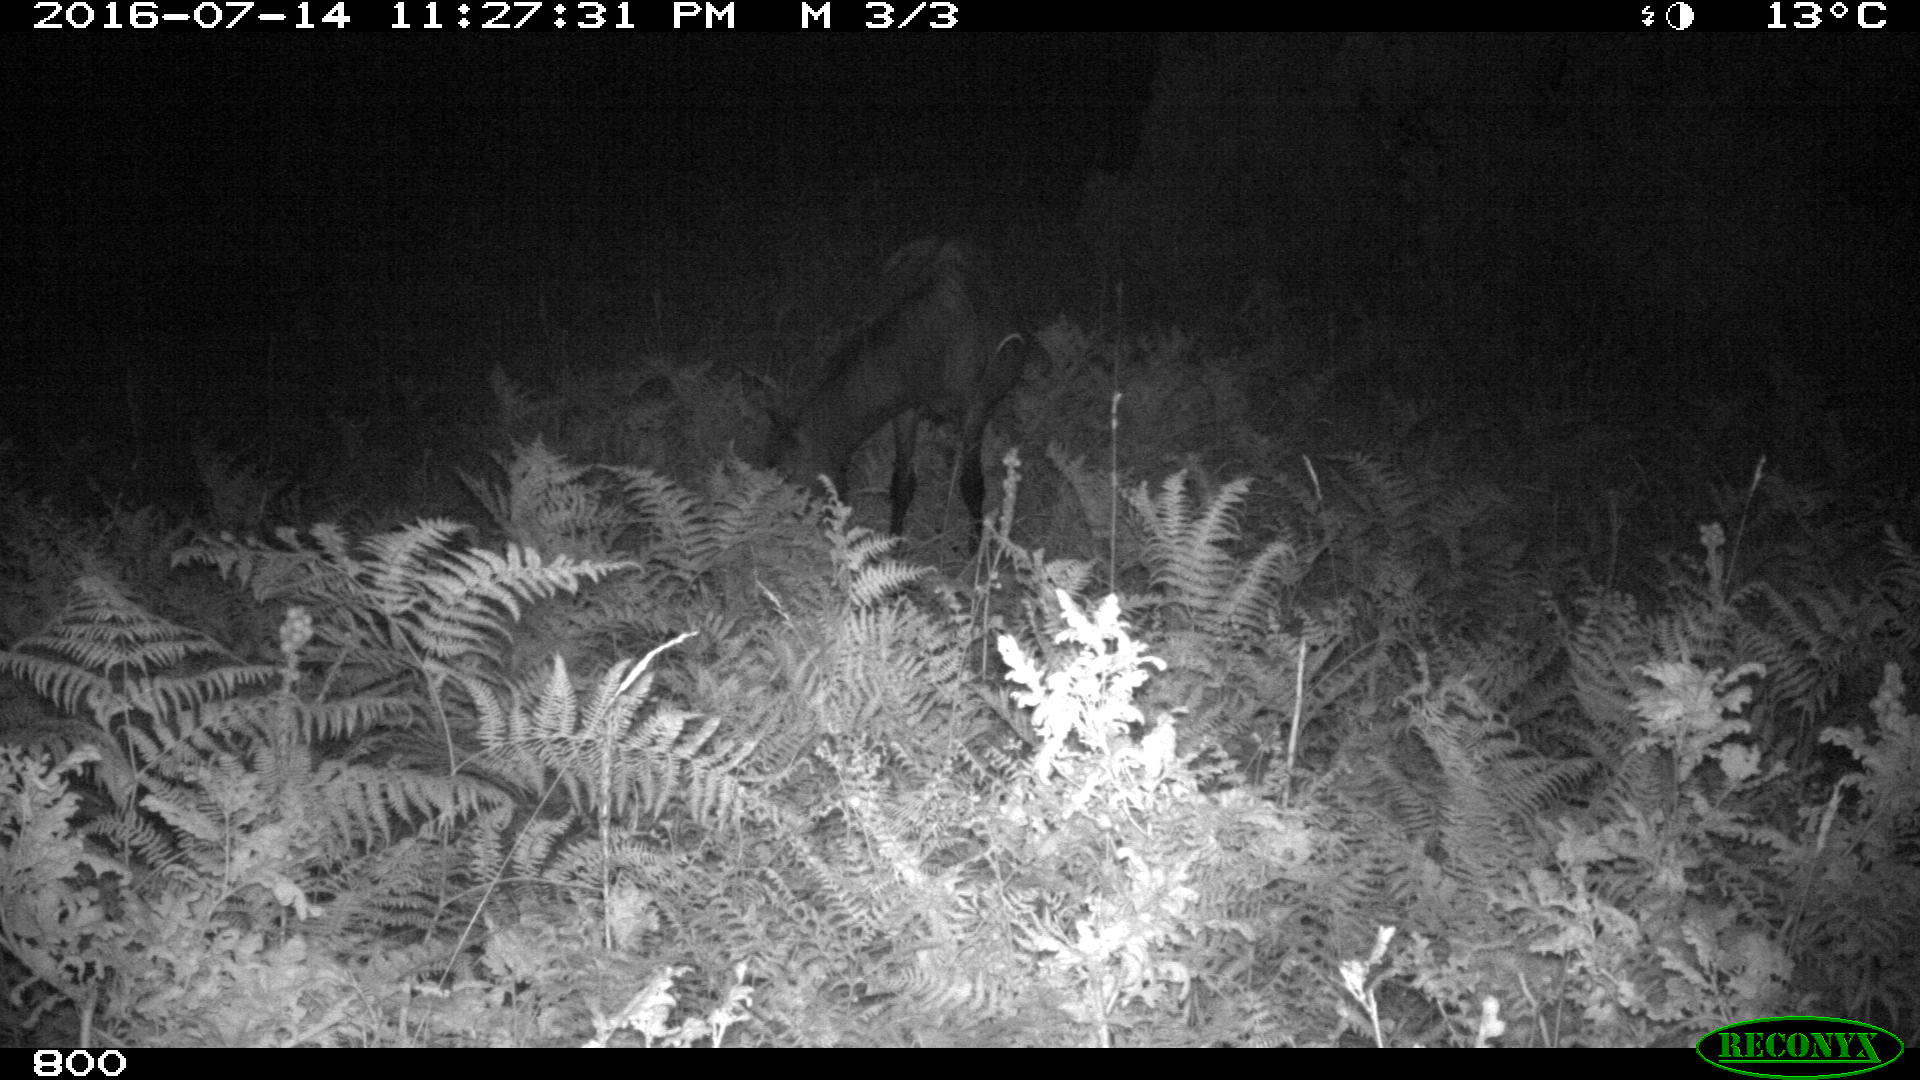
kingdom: Animalia
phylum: Chordata
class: Mammalia
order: Perissodactyla
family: Equidae
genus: Equus
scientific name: Equus caballus
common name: Horse
